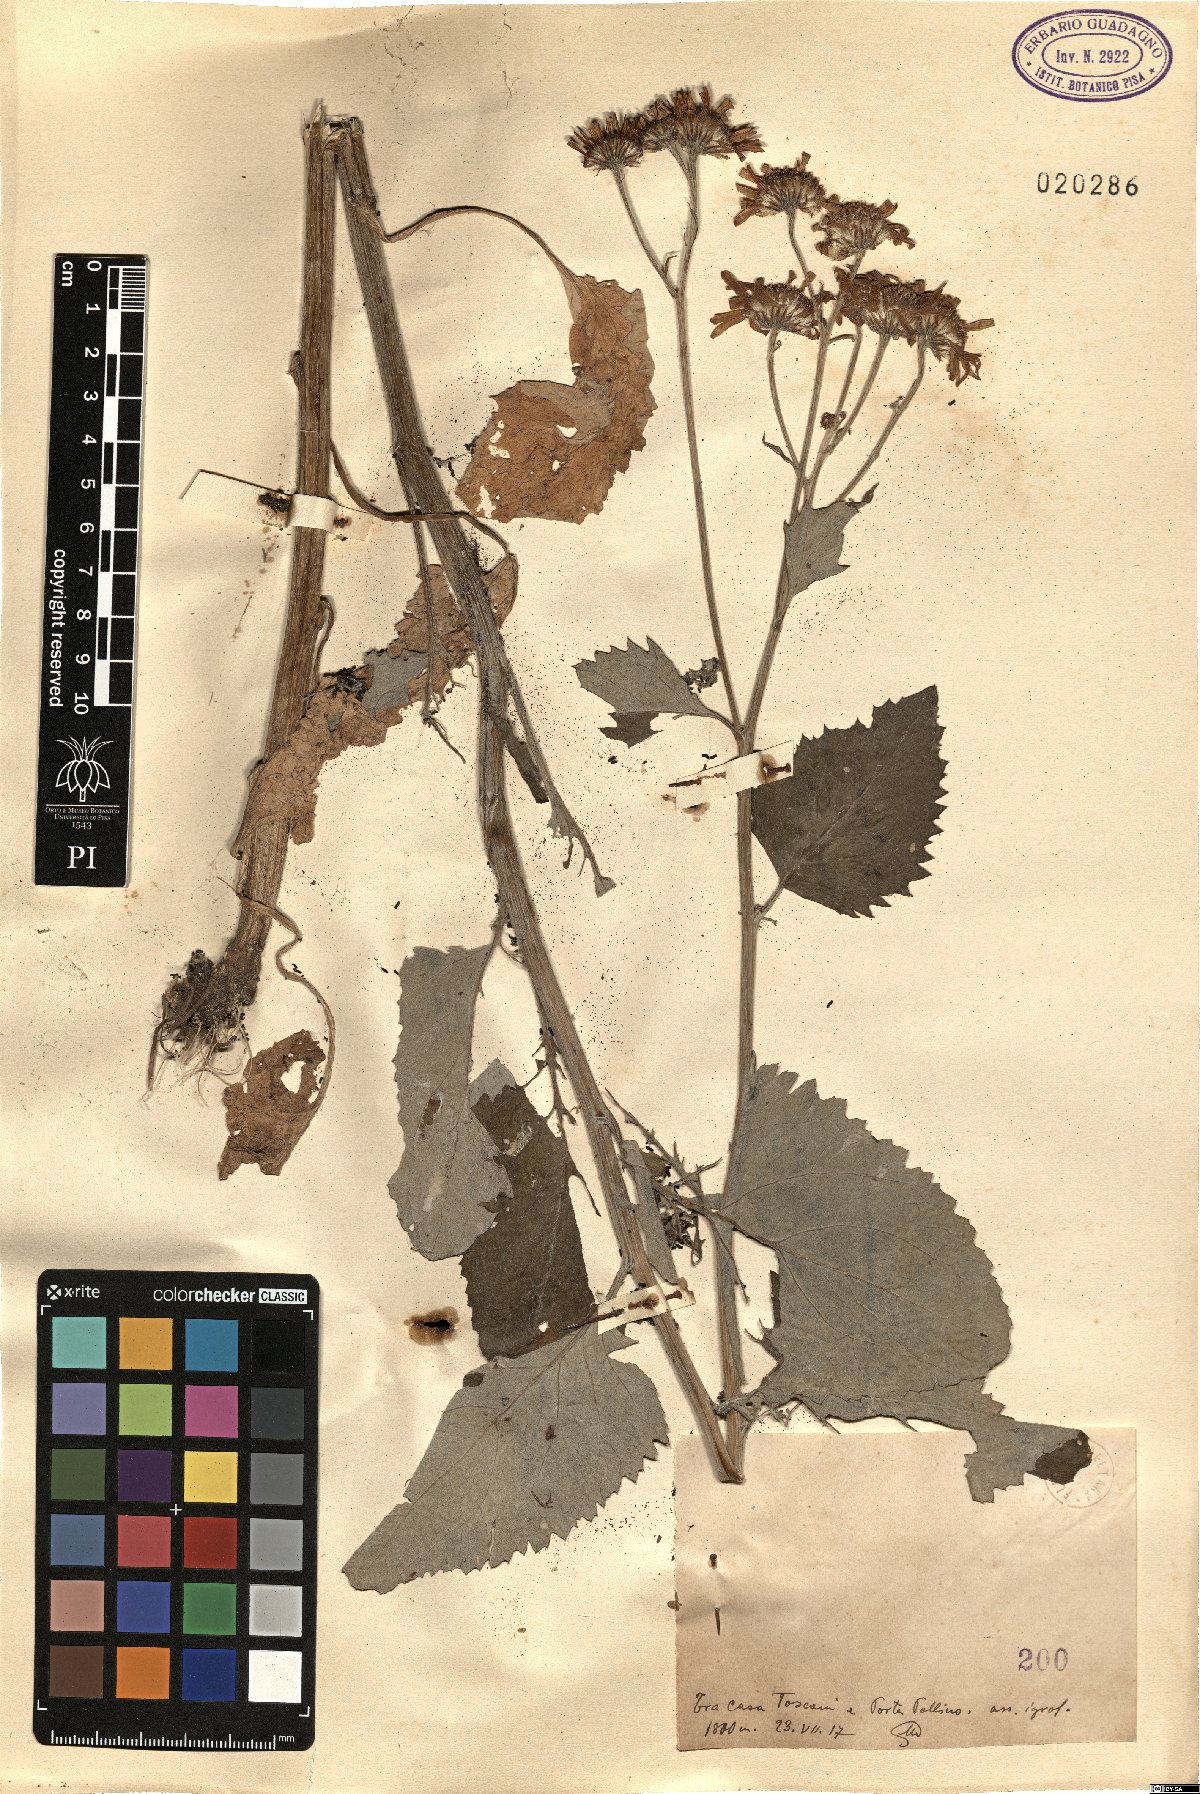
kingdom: Plantae
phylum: Tracheophyta
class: Magnoliopsida
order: Asterales
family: Asteraceae
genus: Senecio
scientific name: Senecio
